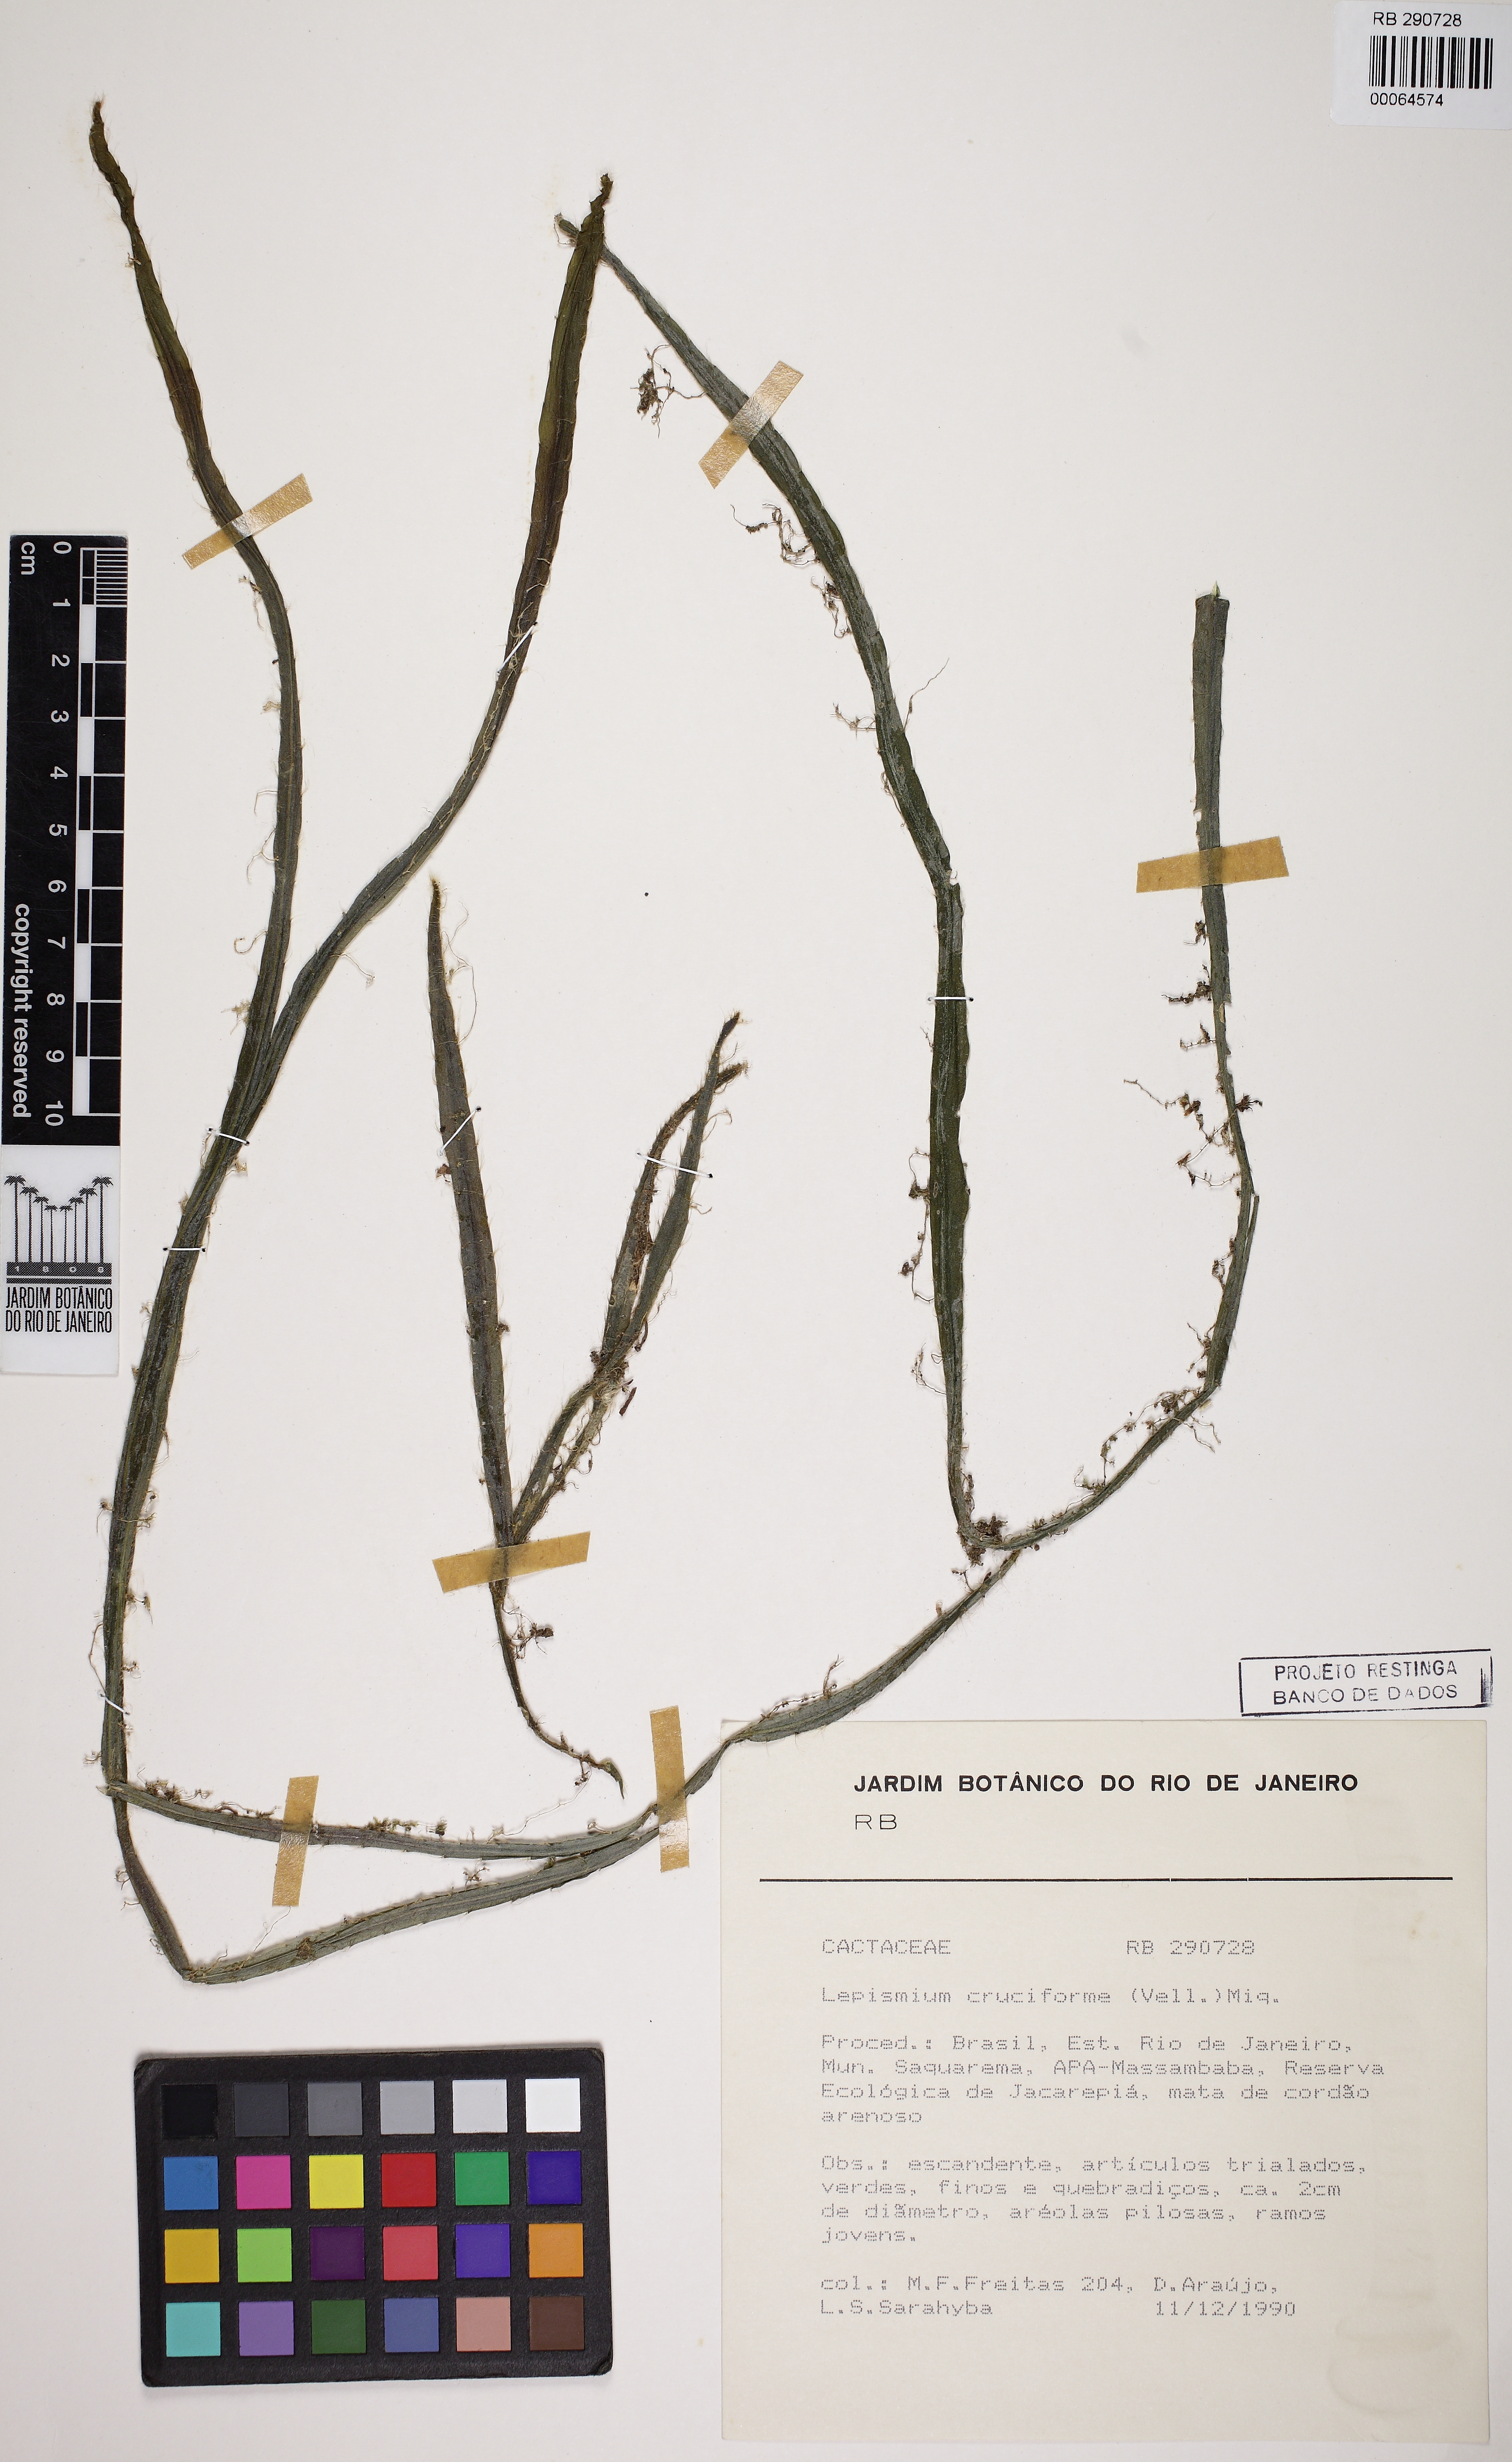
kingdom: Plantae
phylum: Tracheophyta
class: Magnoliopsida
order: Caryophyllales
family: Cactaceae
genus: Lepismium
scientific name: Lepismium cruciforme
